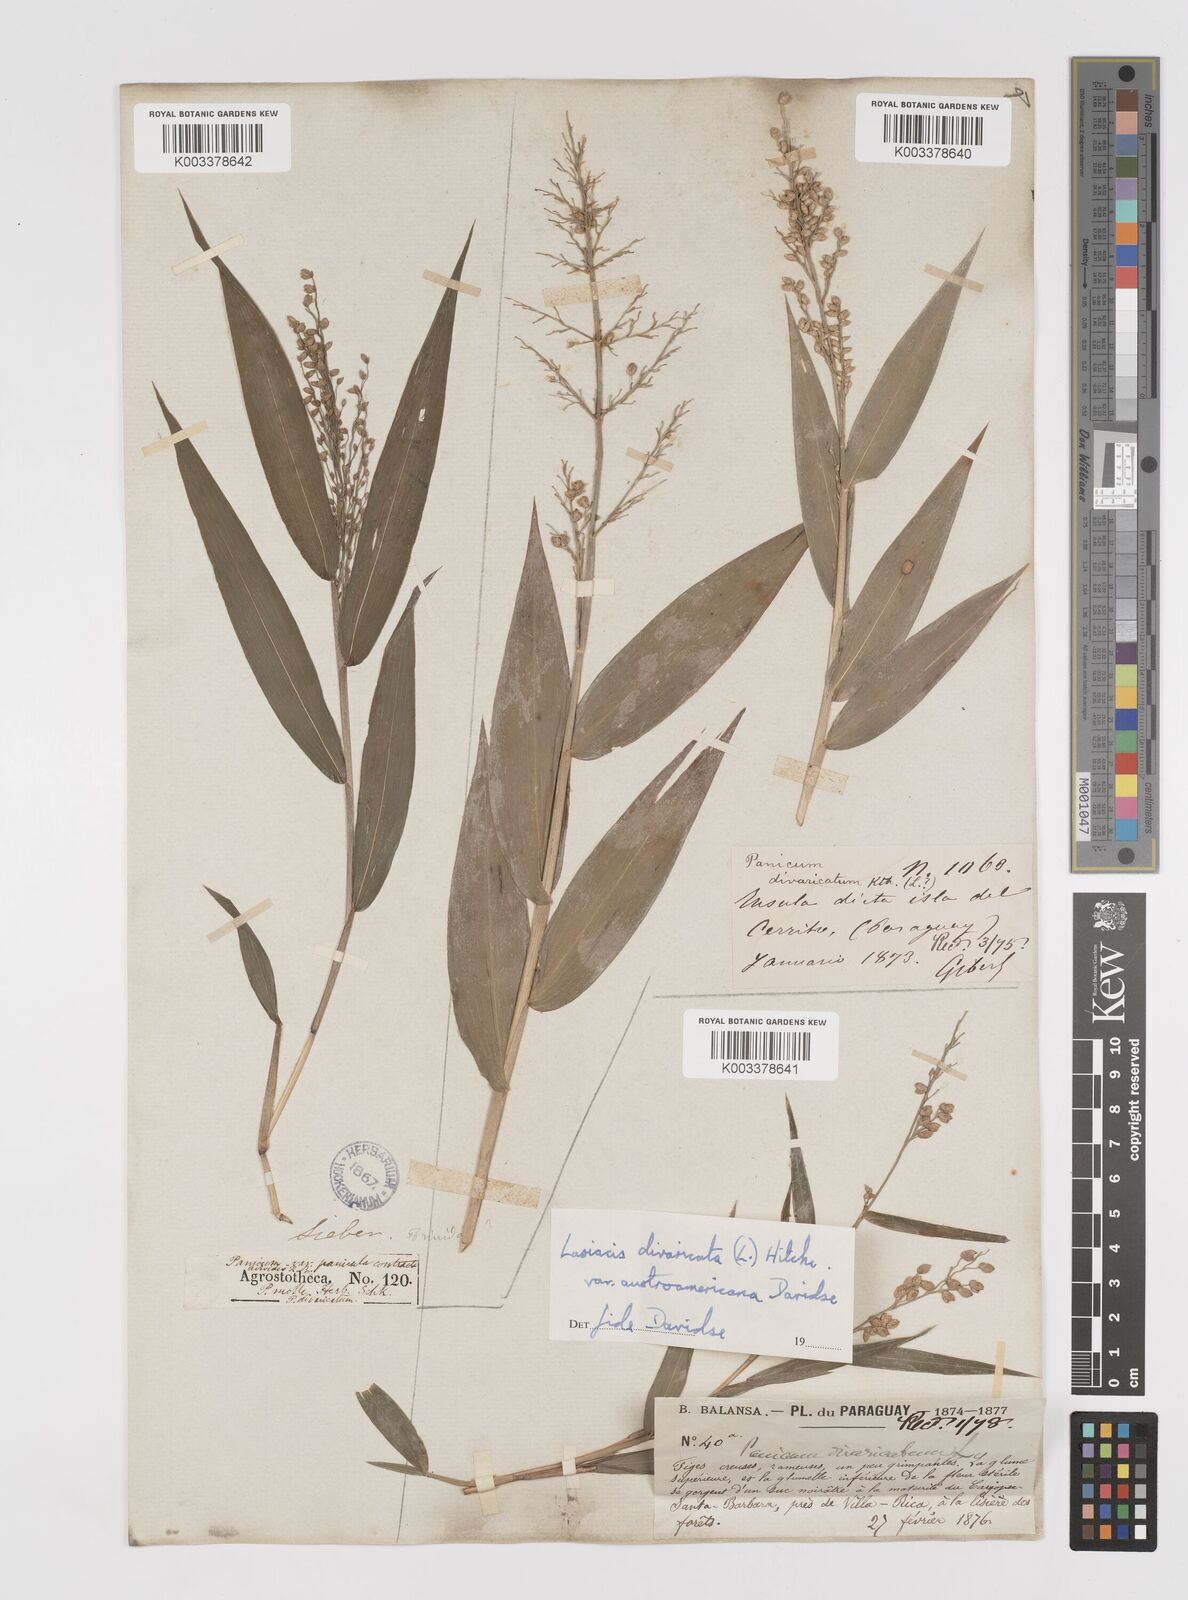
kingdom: Plantae
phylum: Tracheophyta
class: Liliopsida
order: Poales
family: Poaceae
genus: Lasiacis
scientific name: Lasiacis divaricata
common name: Smallcane
